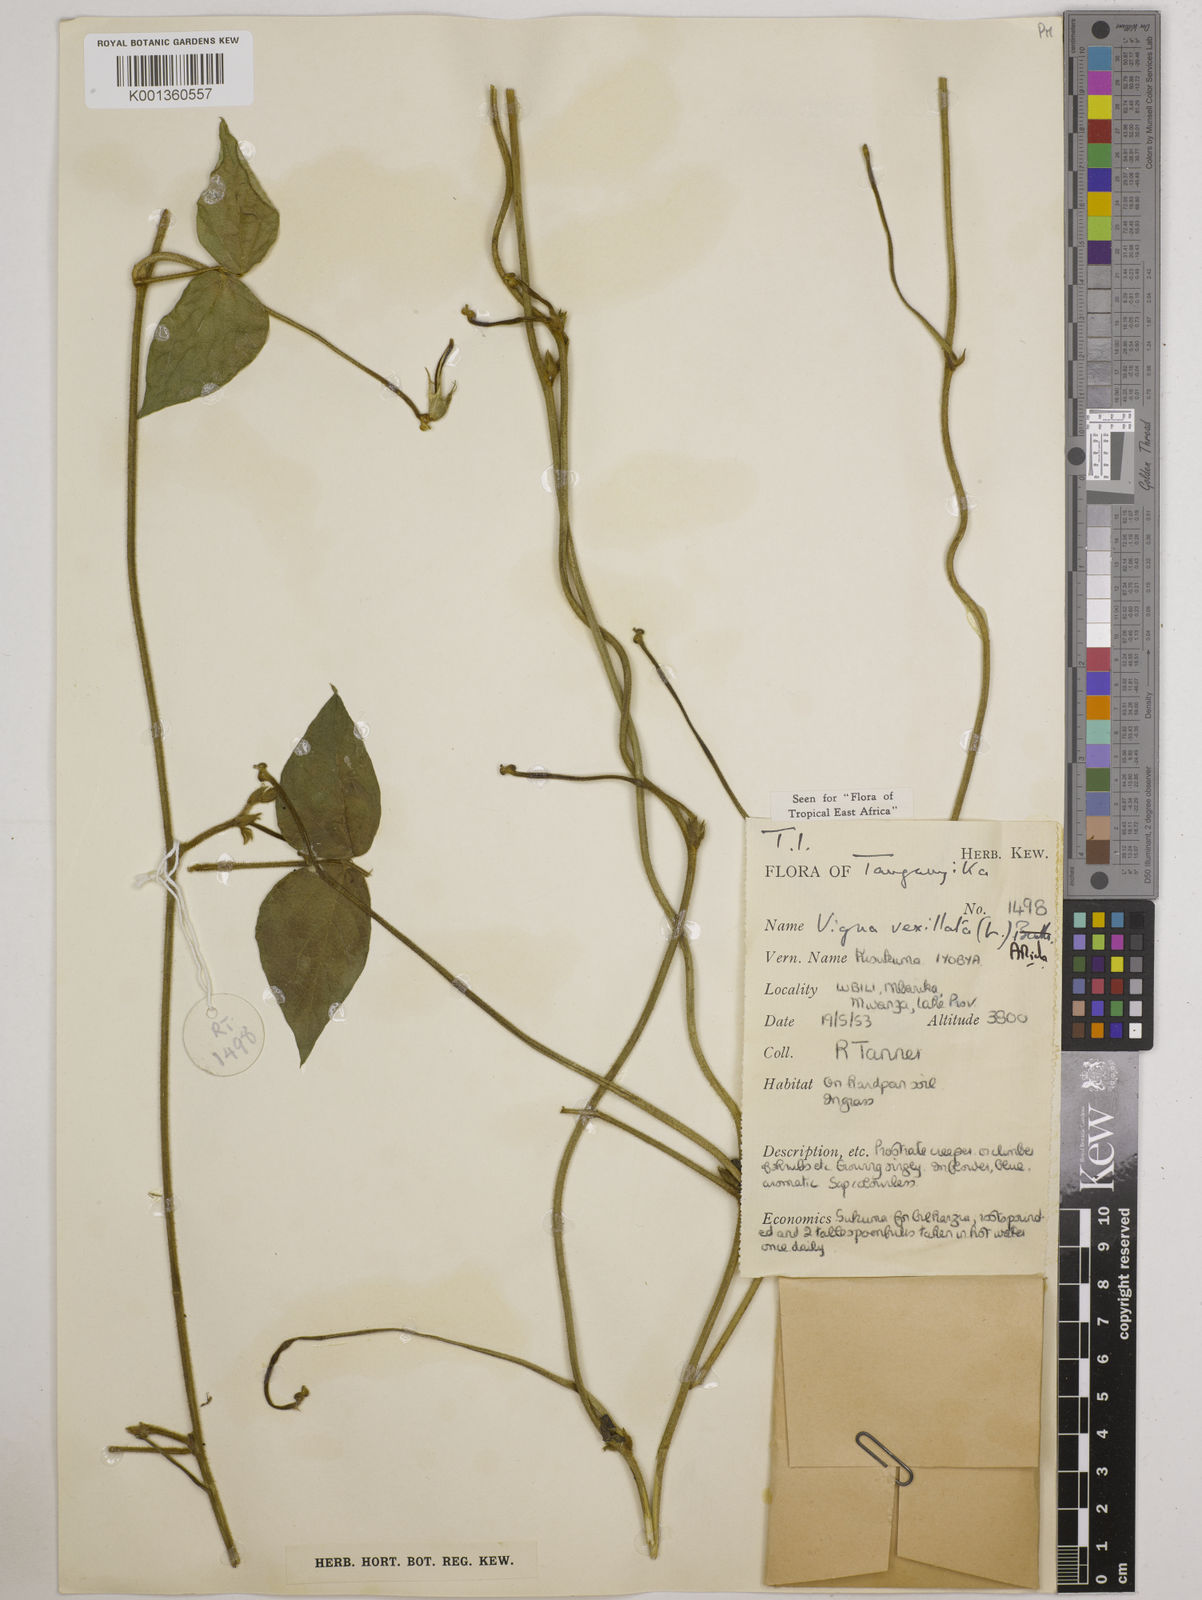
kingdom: Plantae
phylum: Tracheophyta
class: Magnoliopsida
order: Fabales
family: Fabaceae
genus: Vigna
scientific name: Vigna vexillata
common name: Zombi pea
